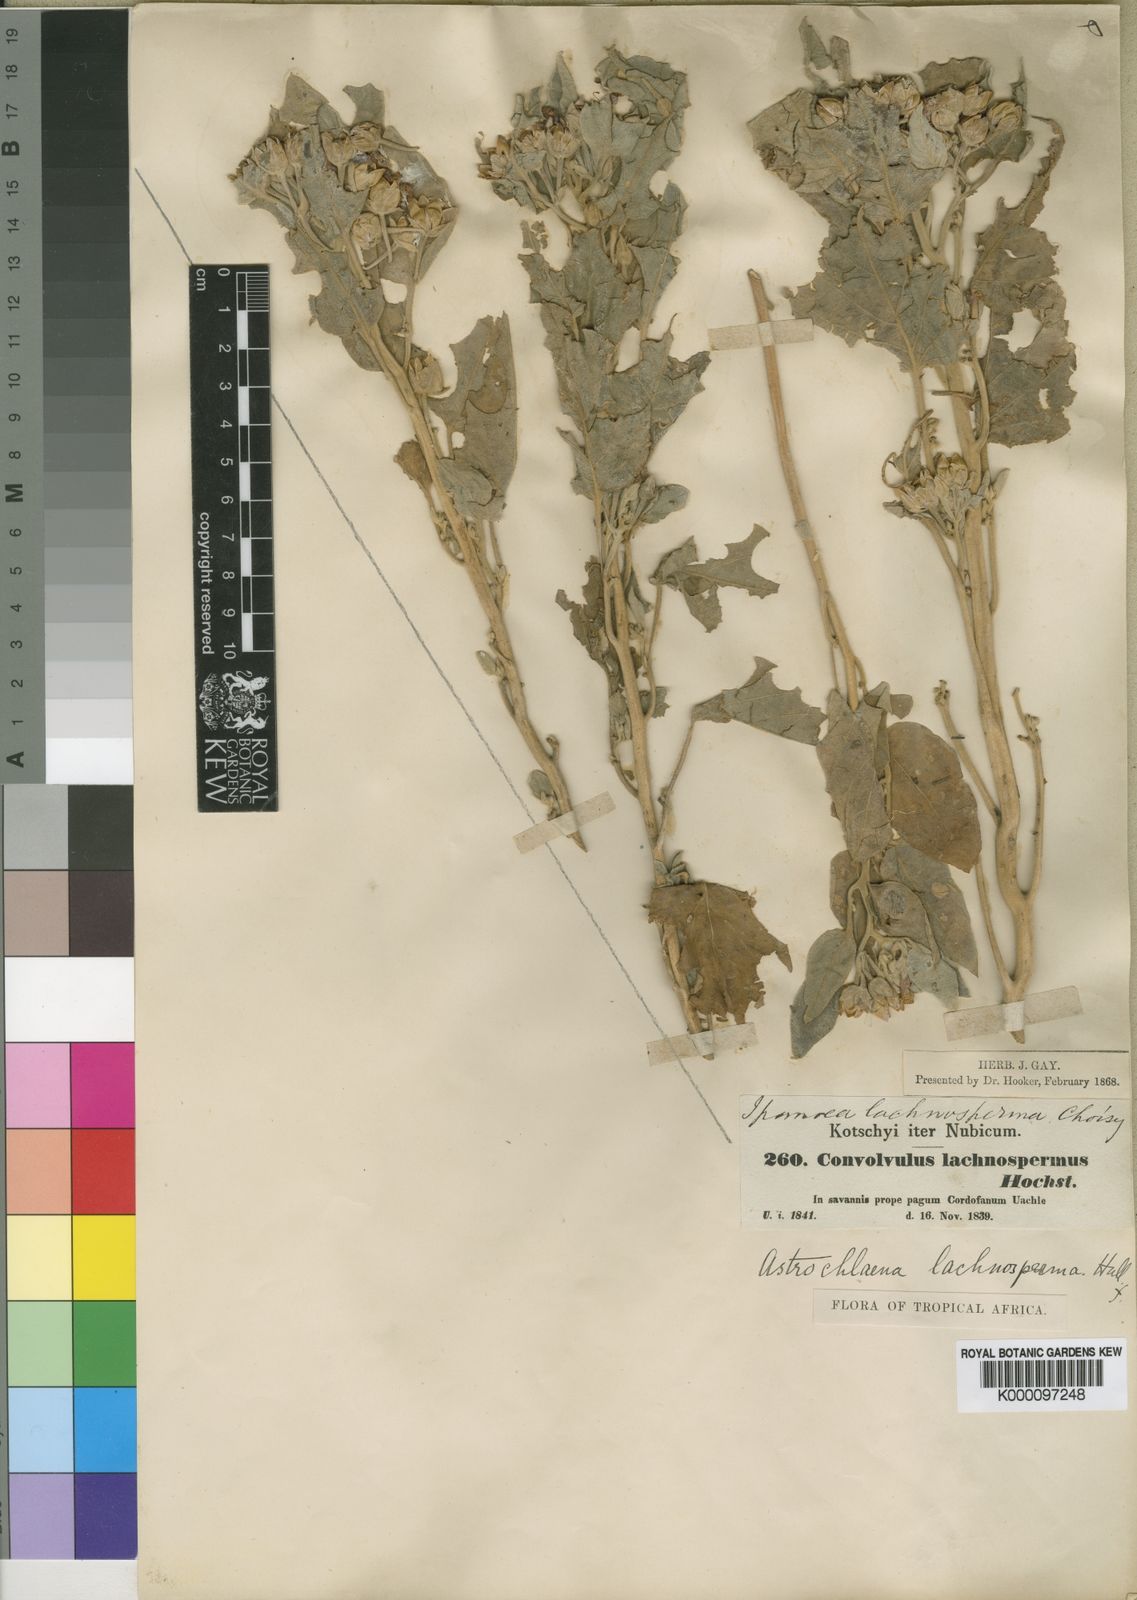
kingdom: Plantae
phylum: Tracheophyta
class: Magnoliopsida
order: Solanales
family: Convolvulaceae
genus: Astripomoea
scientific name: Astripomoea lachnosperma
